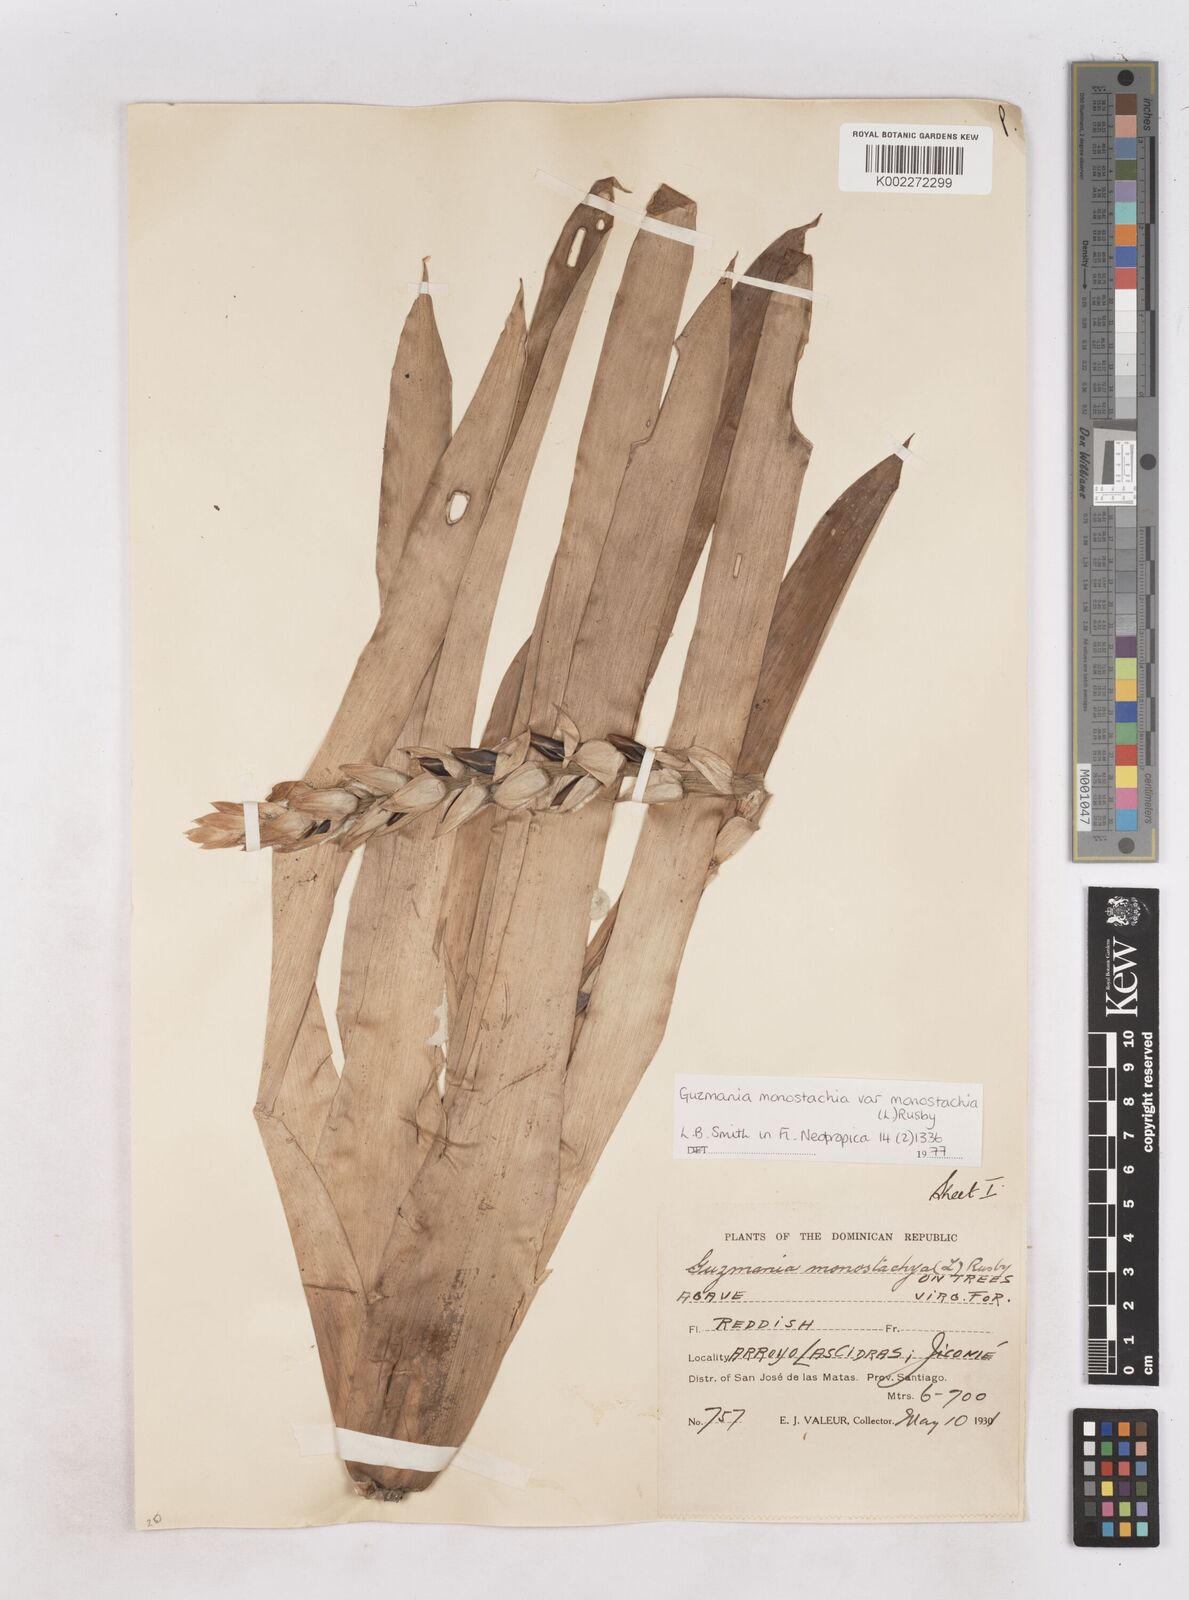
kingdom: Plantae
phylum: Tracheophyta
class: Liliopsida
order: Poales
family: Bromeliaceae
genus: Guzmania
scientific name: Guzmania monostachia
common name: West indian tufted airplant
